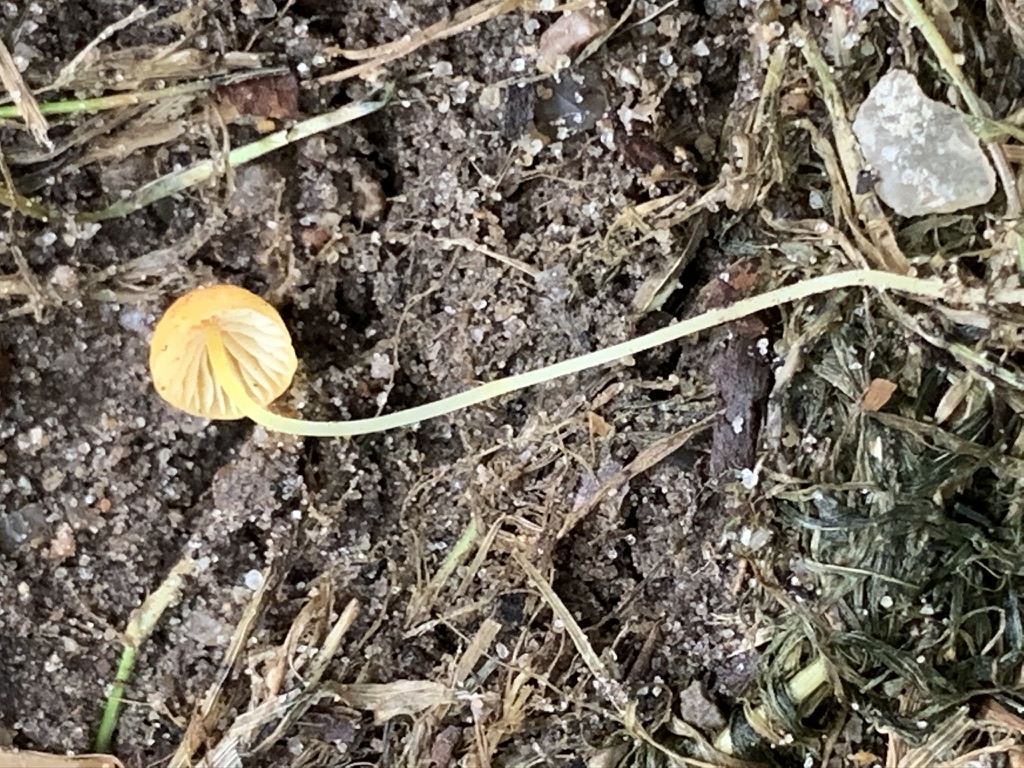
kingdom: Fungi
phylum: Basidiomycota
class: Agaricomycetes
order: Agaricales
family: Mycenaceae
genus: Mycena
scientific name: Mycena acicula
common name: orange huesvamp
